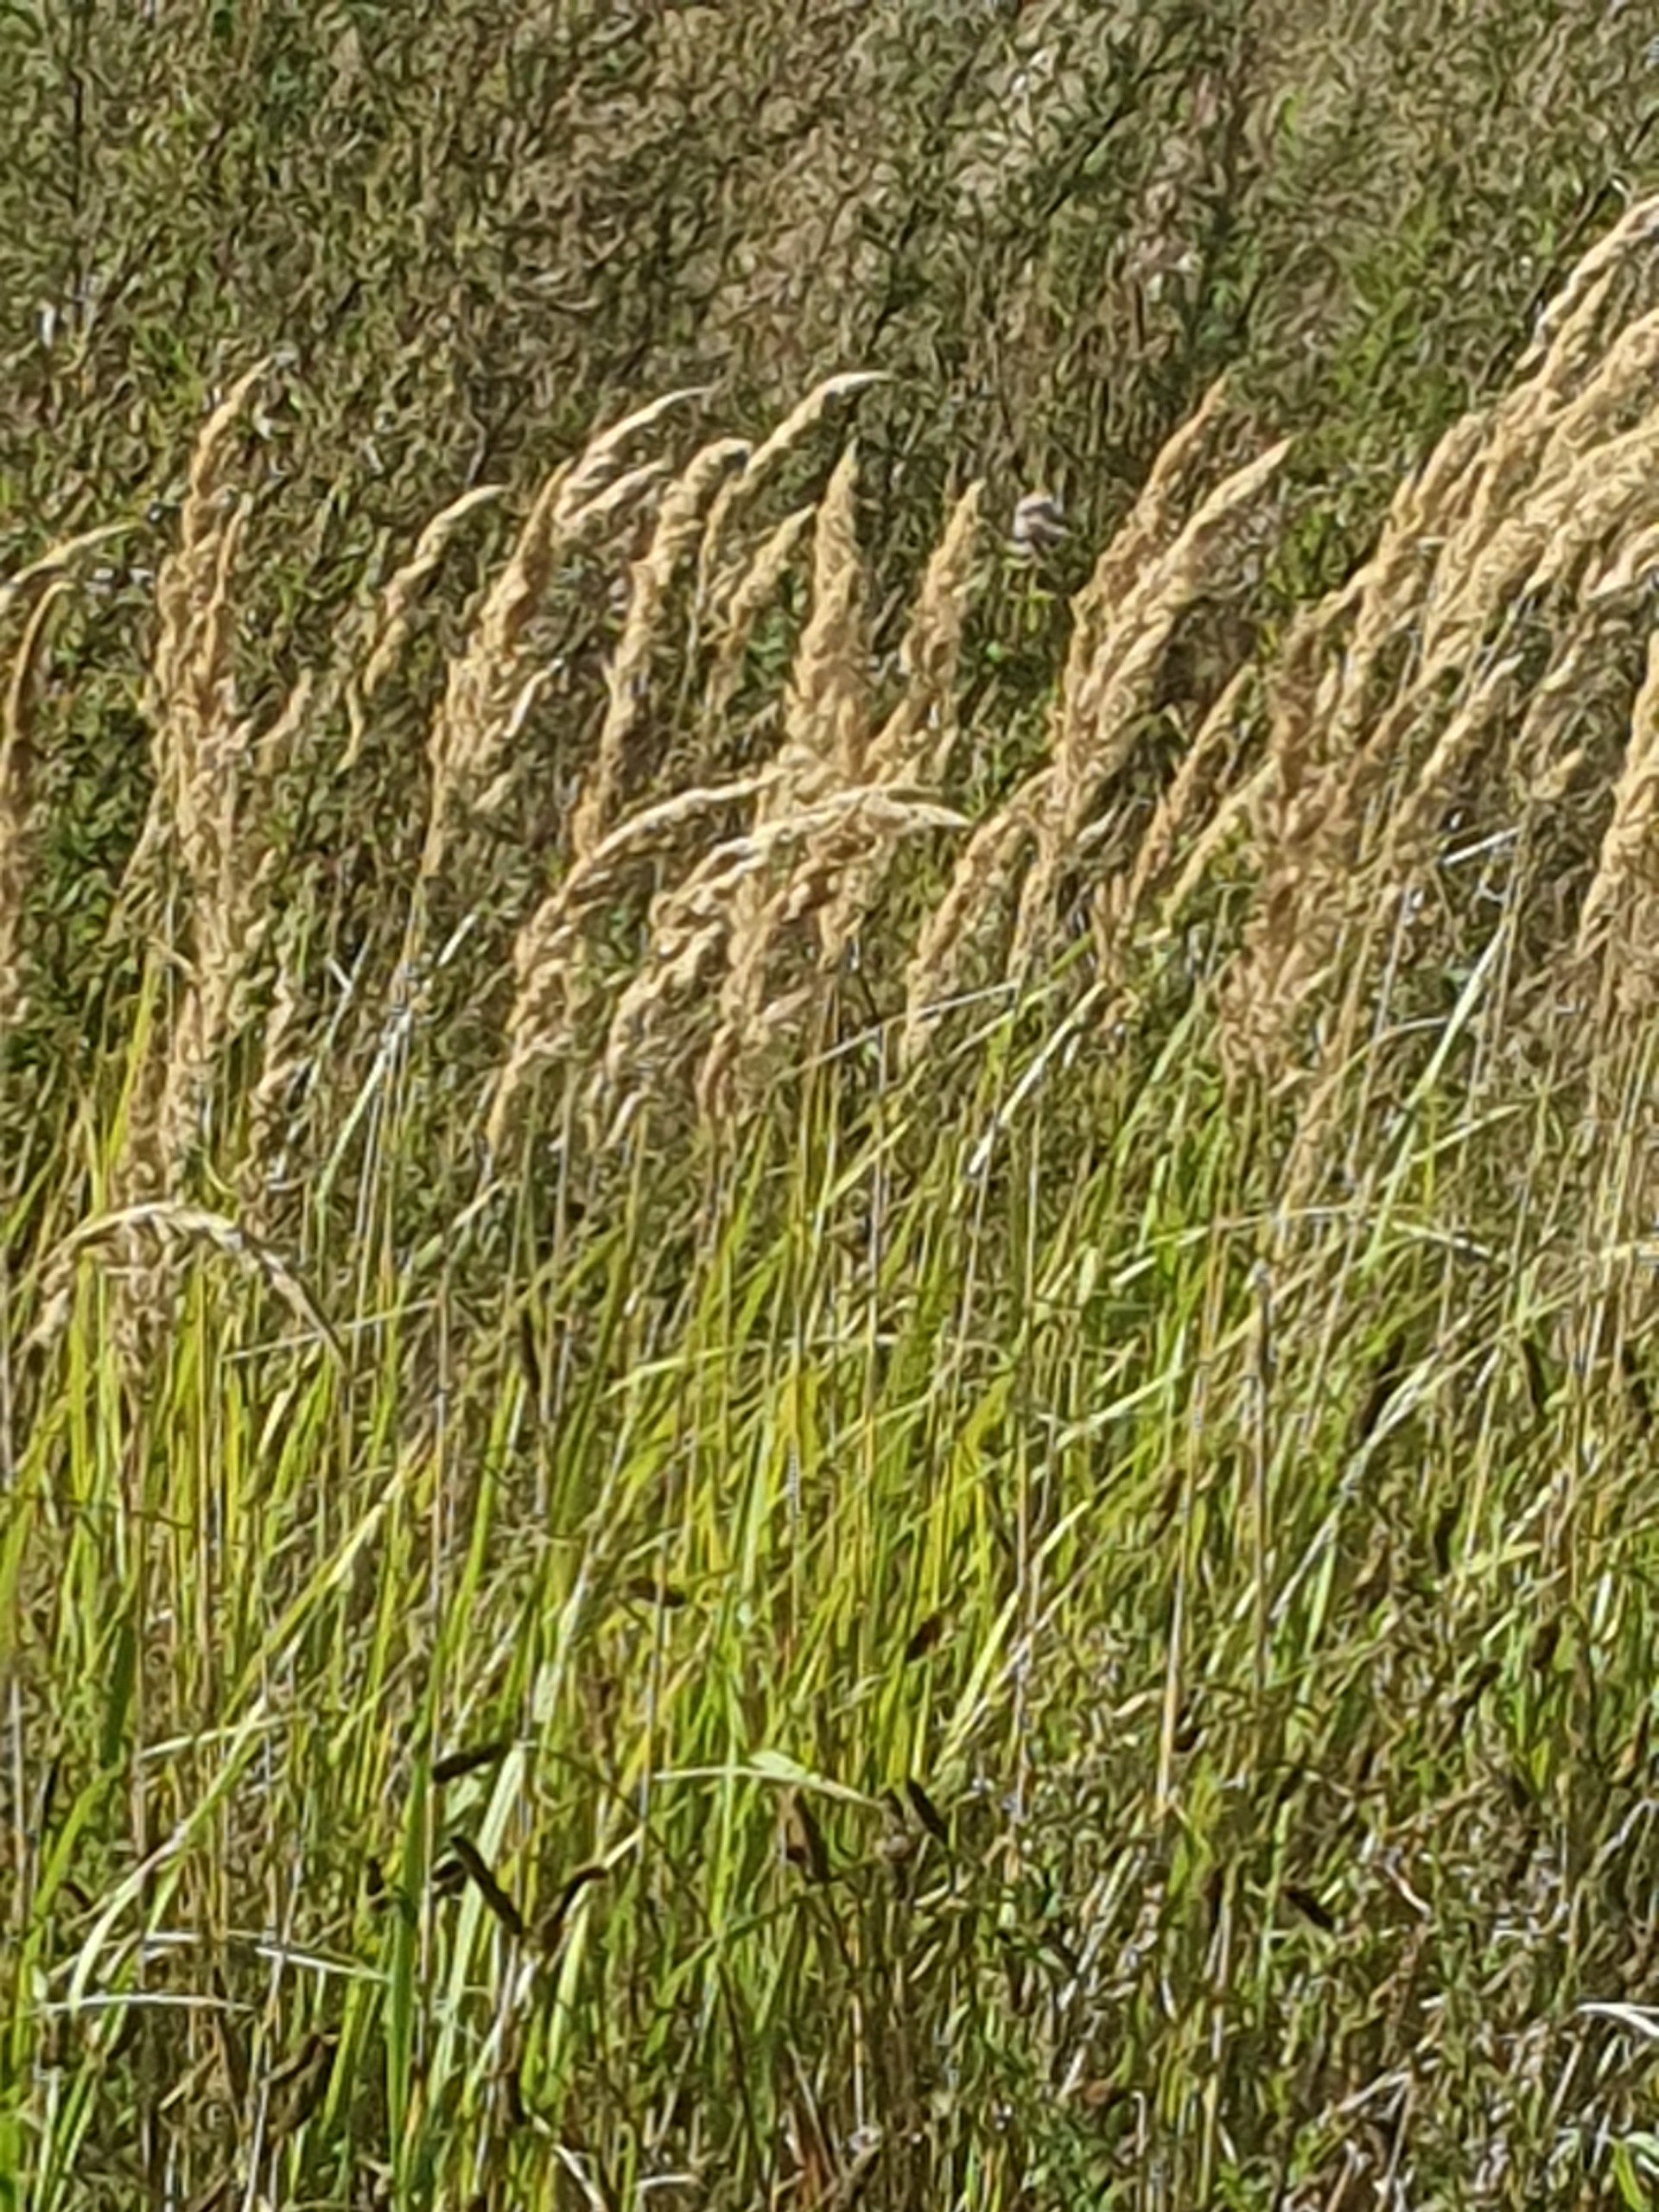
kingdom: Plantae
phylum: Tracheophyta
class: Liliopsida
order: Poales
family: Poaceae
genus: Calamagrostis
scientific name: Calamagrostis epigejos
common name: Bjerg-rørhvene
